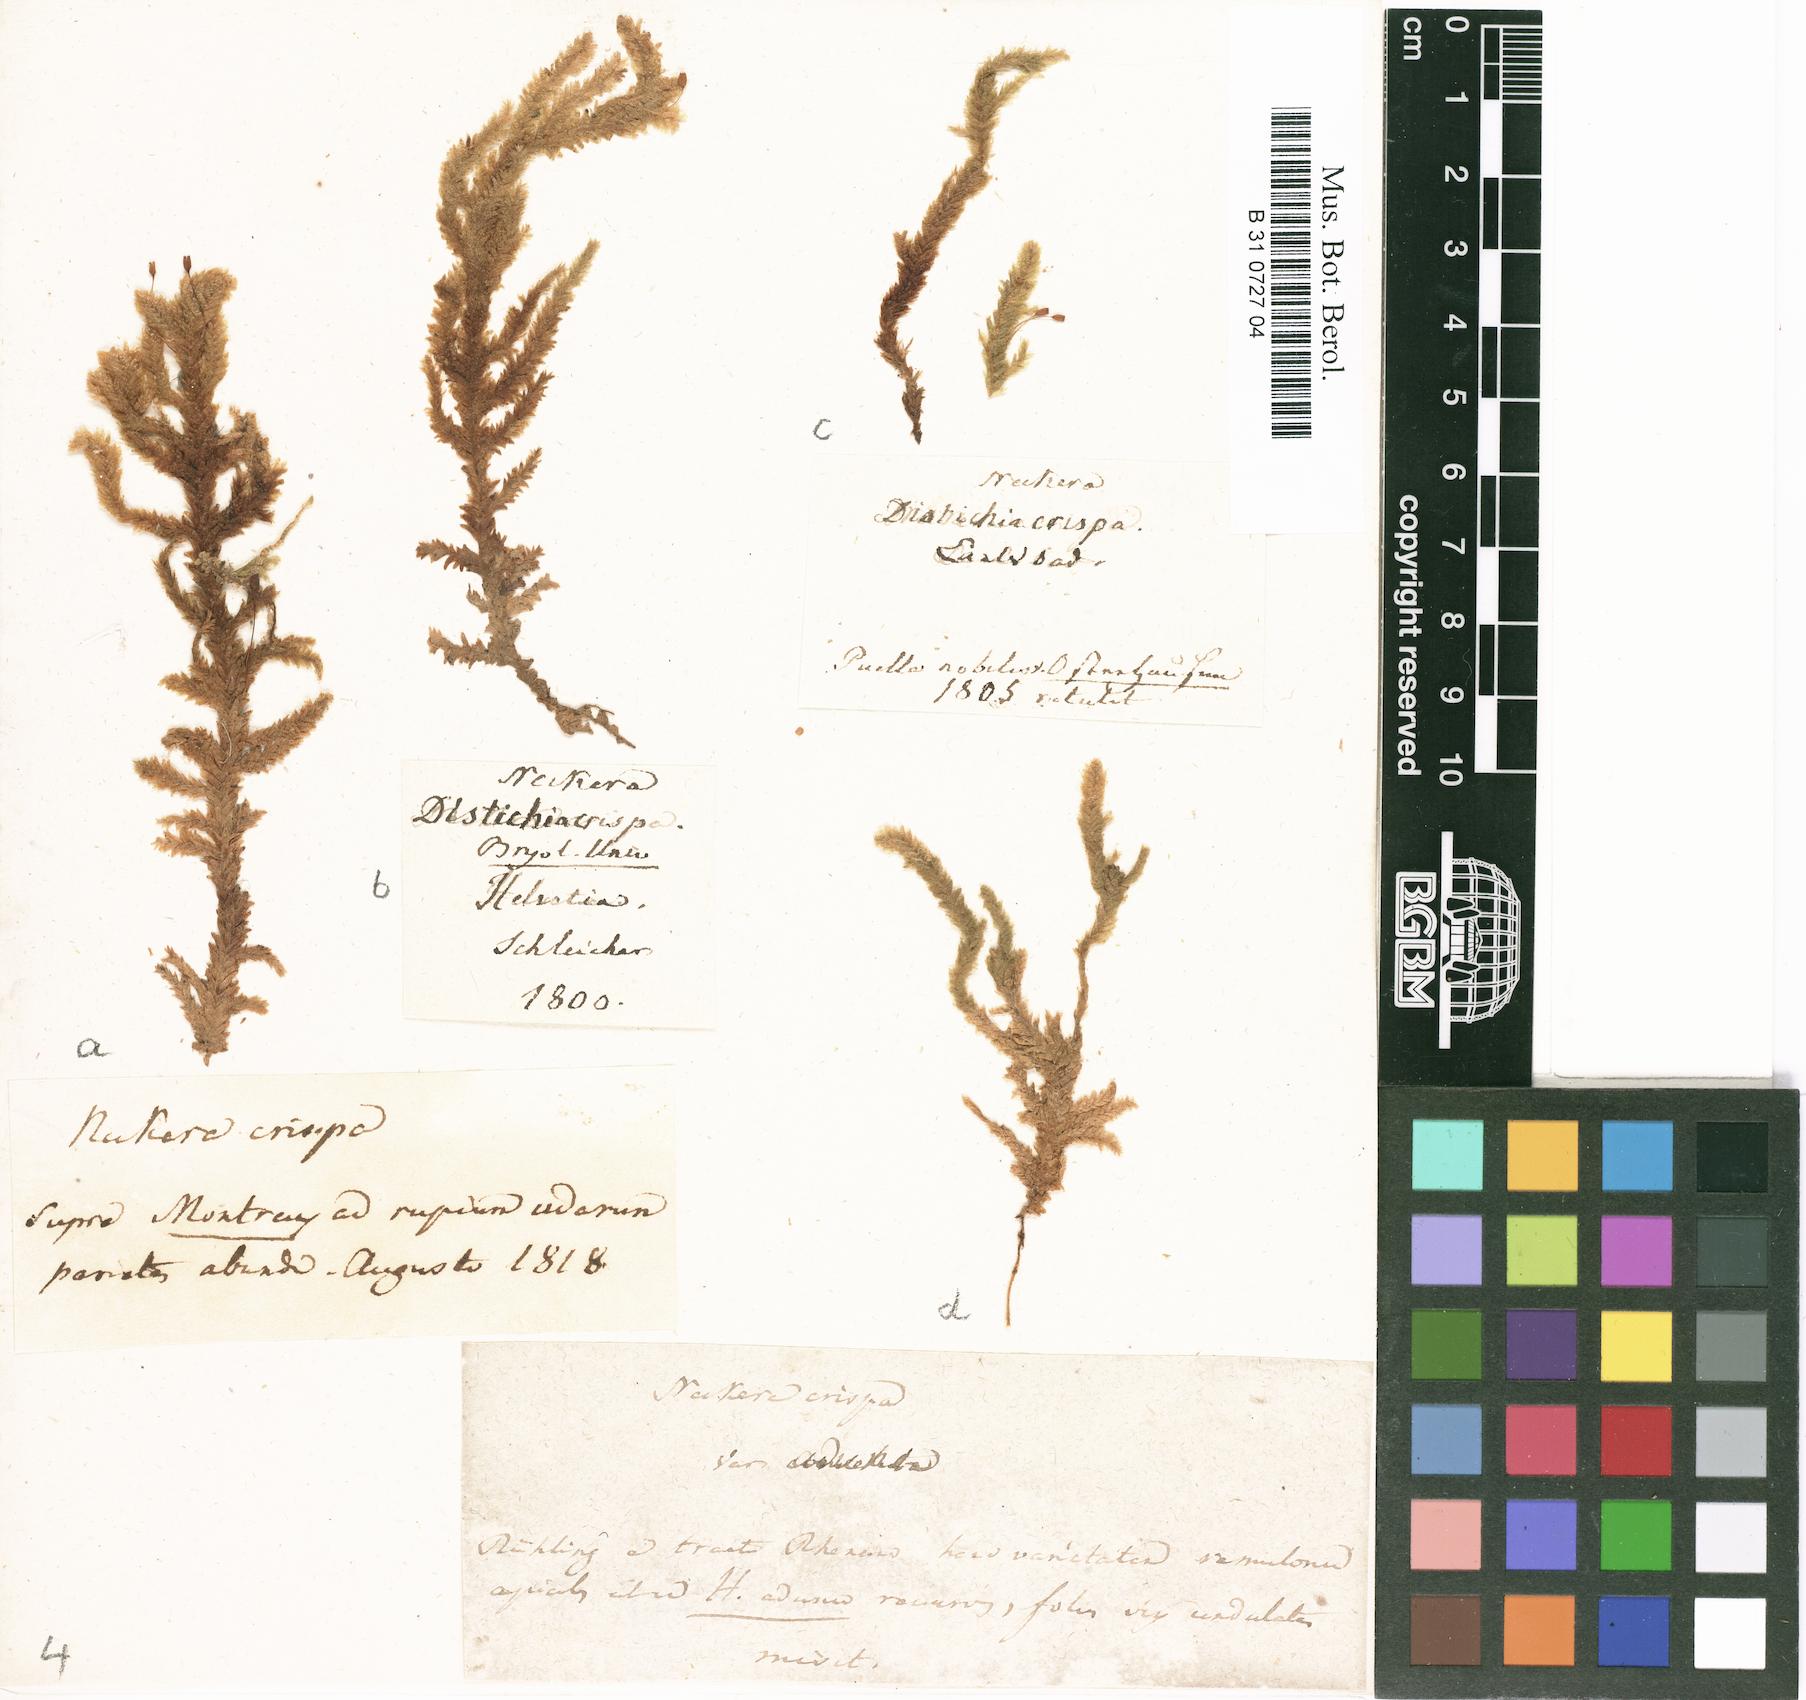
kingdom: Plantae
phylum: Bryophyta
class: Bryopsida
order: Hypnales
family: Neckeraceae
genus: Exsertotheca
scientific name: Exsertotheca crispa
